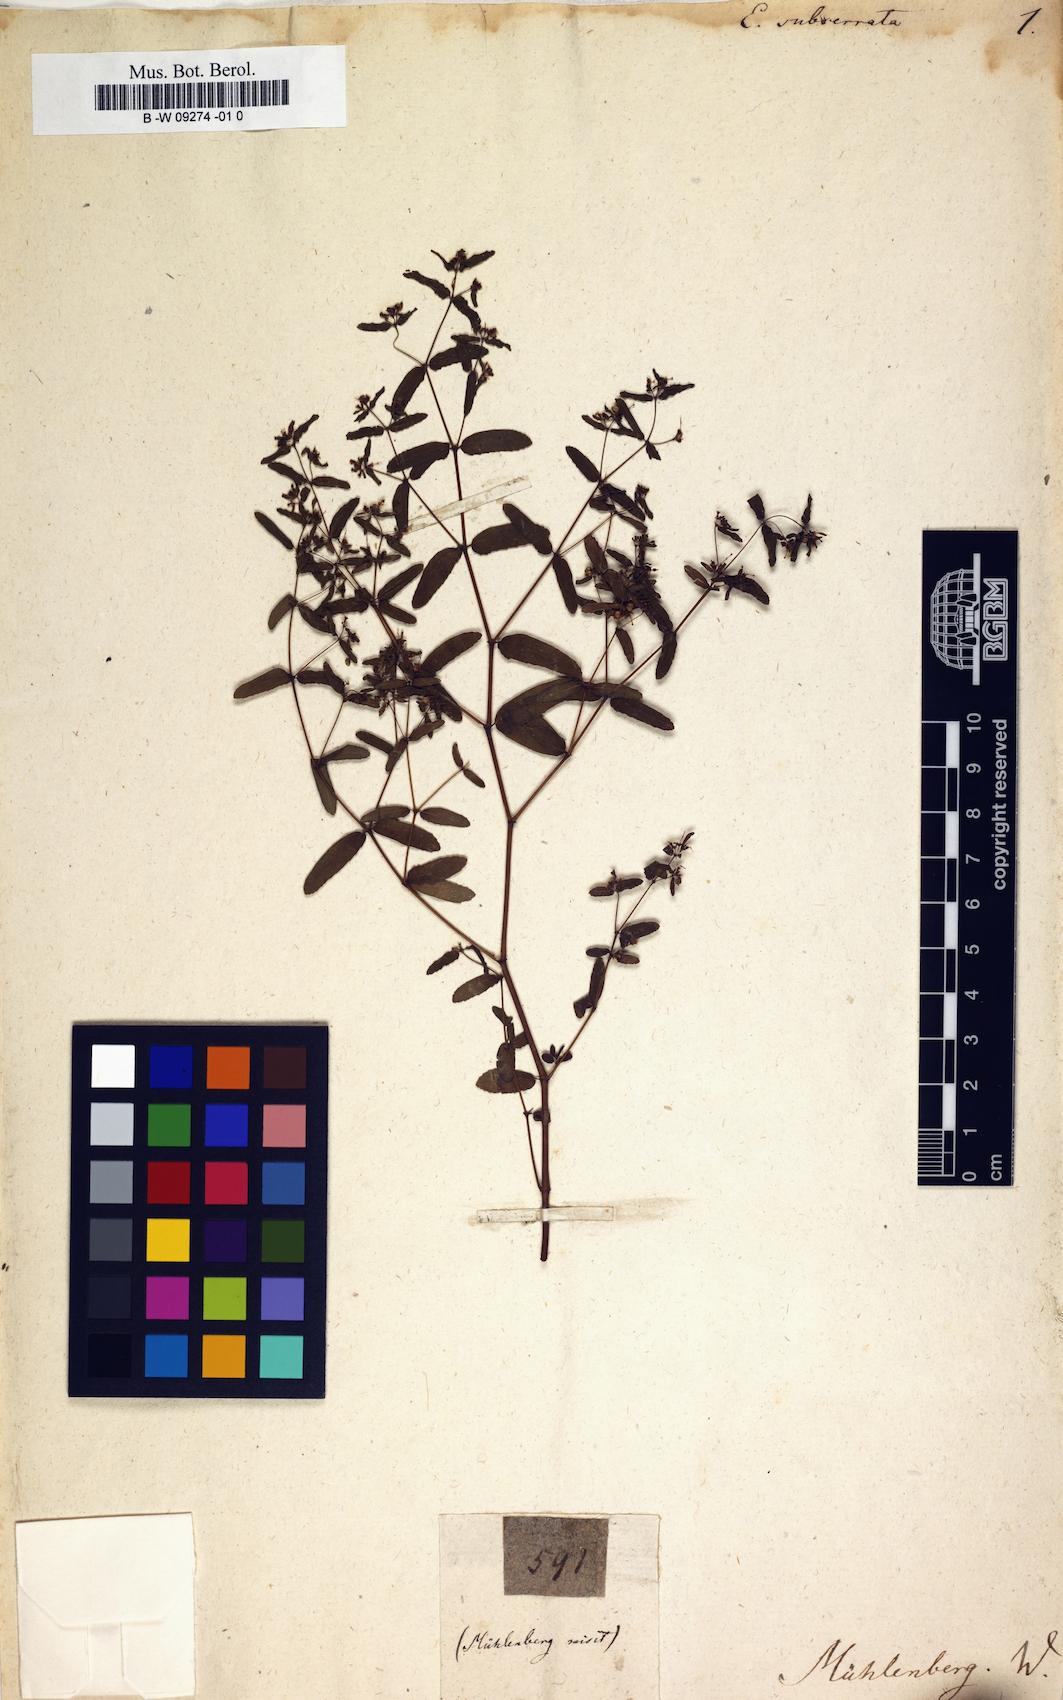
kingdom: Plantae
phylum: Tracheophyta
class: Magnoliopsida
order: Malpighiales
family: Euphorbiaceae
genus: Euphorbia
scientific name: Euphorbia serpillifolia
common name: Thyme-leaf spurge
